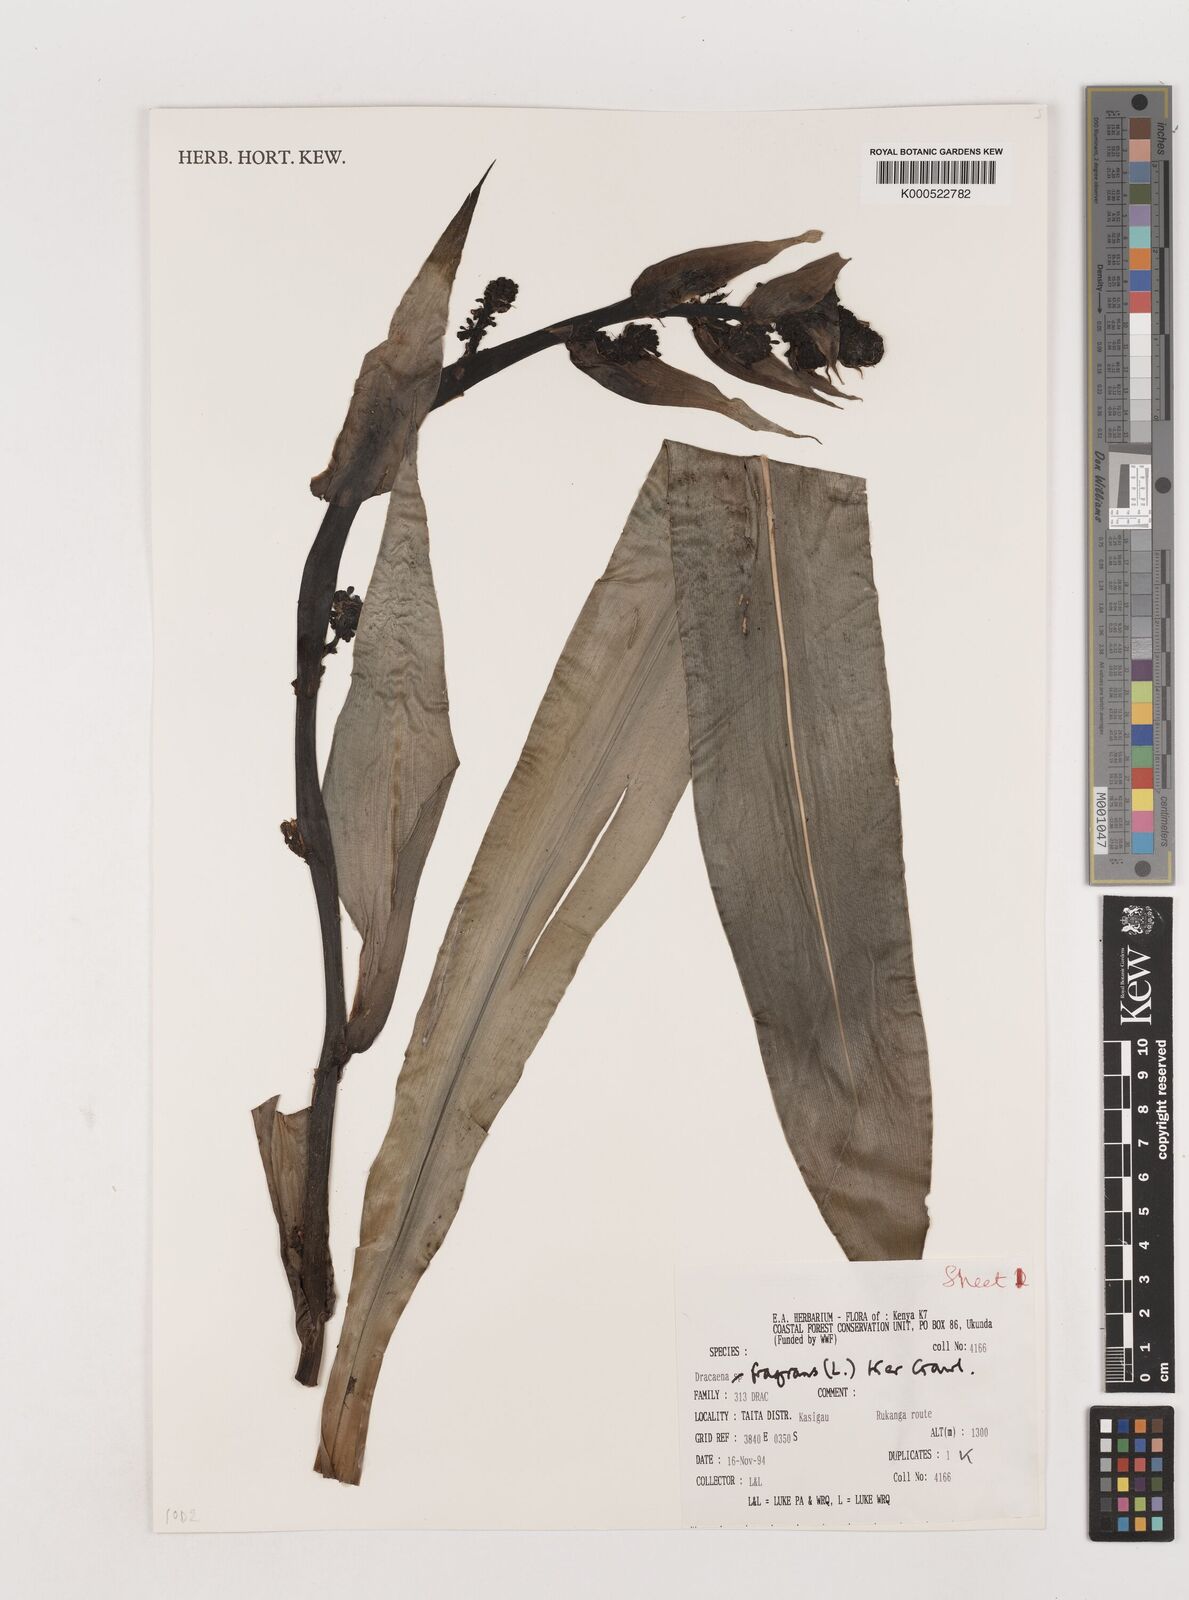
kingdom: Plantae
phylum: Tracheophyta
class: Liliopsida
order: Asparagales
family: Asparagaceae
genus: Dracaena
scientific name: Dracaena fragrans
